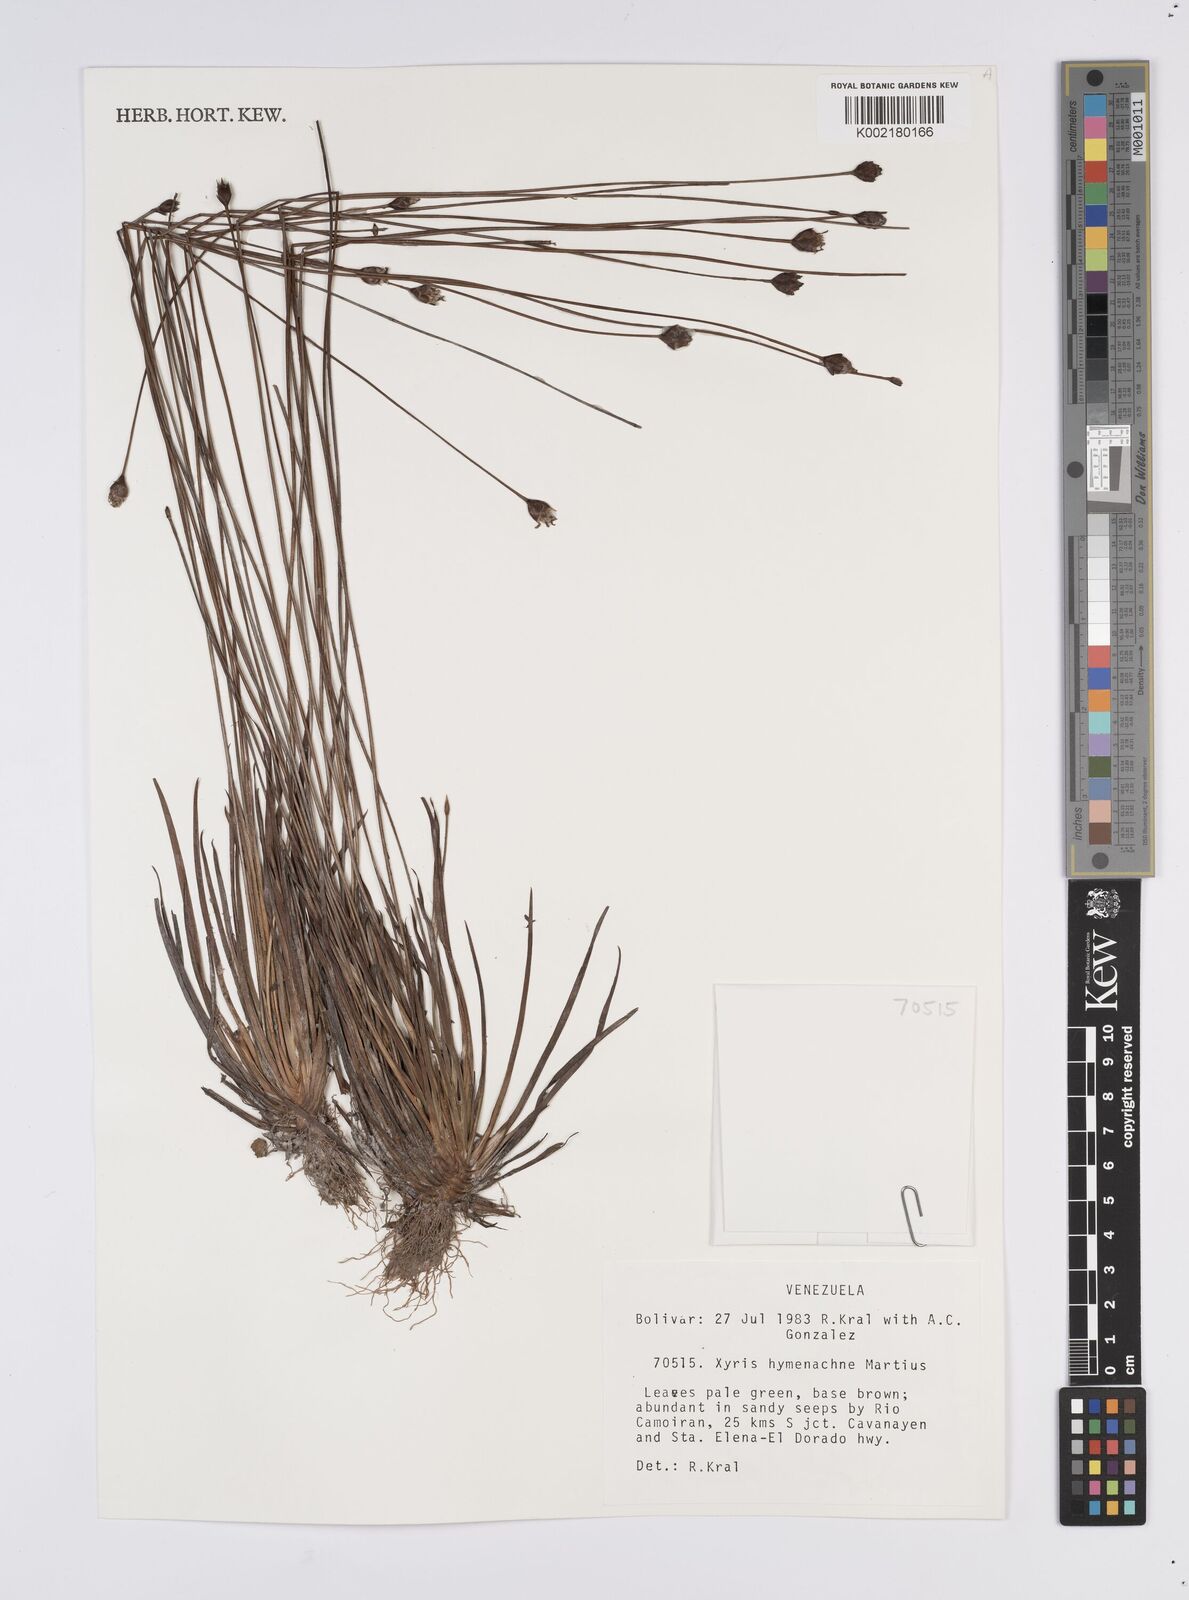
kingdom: Plantae
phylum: Tracheophyta
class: Liliopsida
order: Poales
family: Xyridaceae
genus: Xyris
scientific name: Xyris hymenachne
